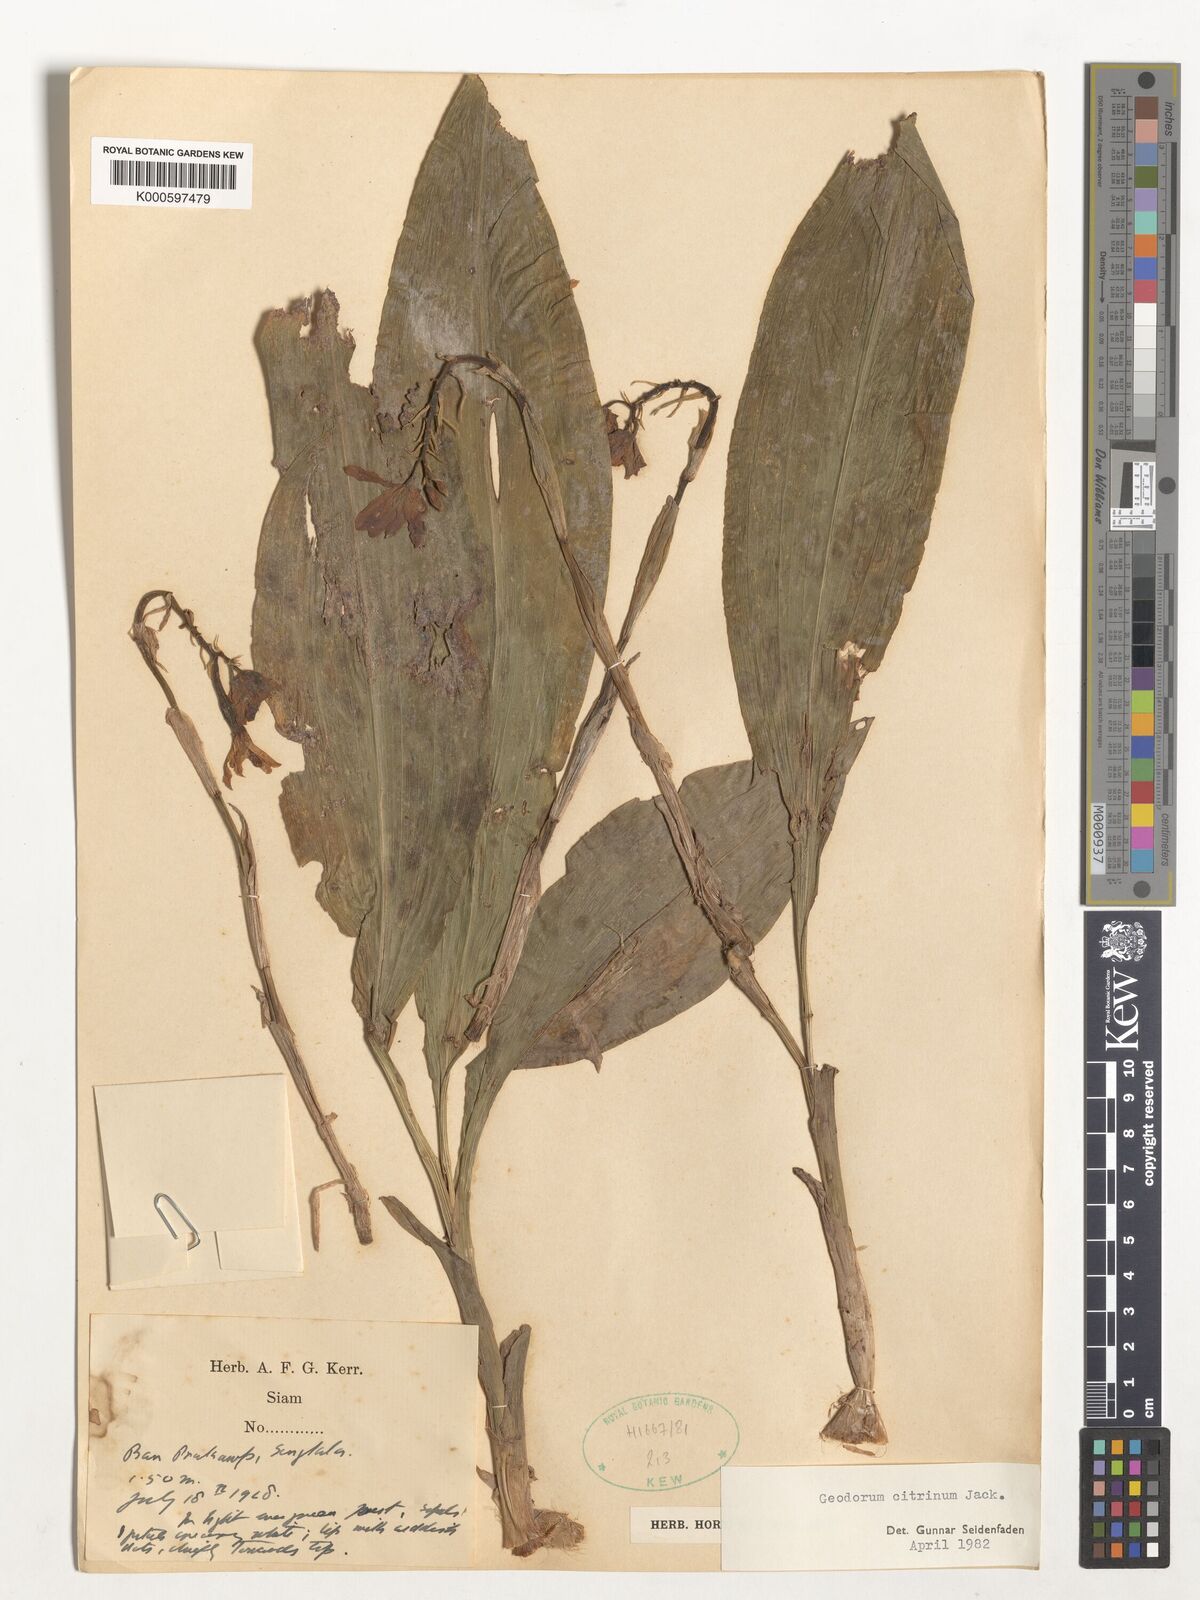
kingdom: Plantae
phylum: Tracheophyta
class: Liliopsida
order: Asparagales
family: Orchidaceae
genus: Geodorum
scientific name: Geodorum
